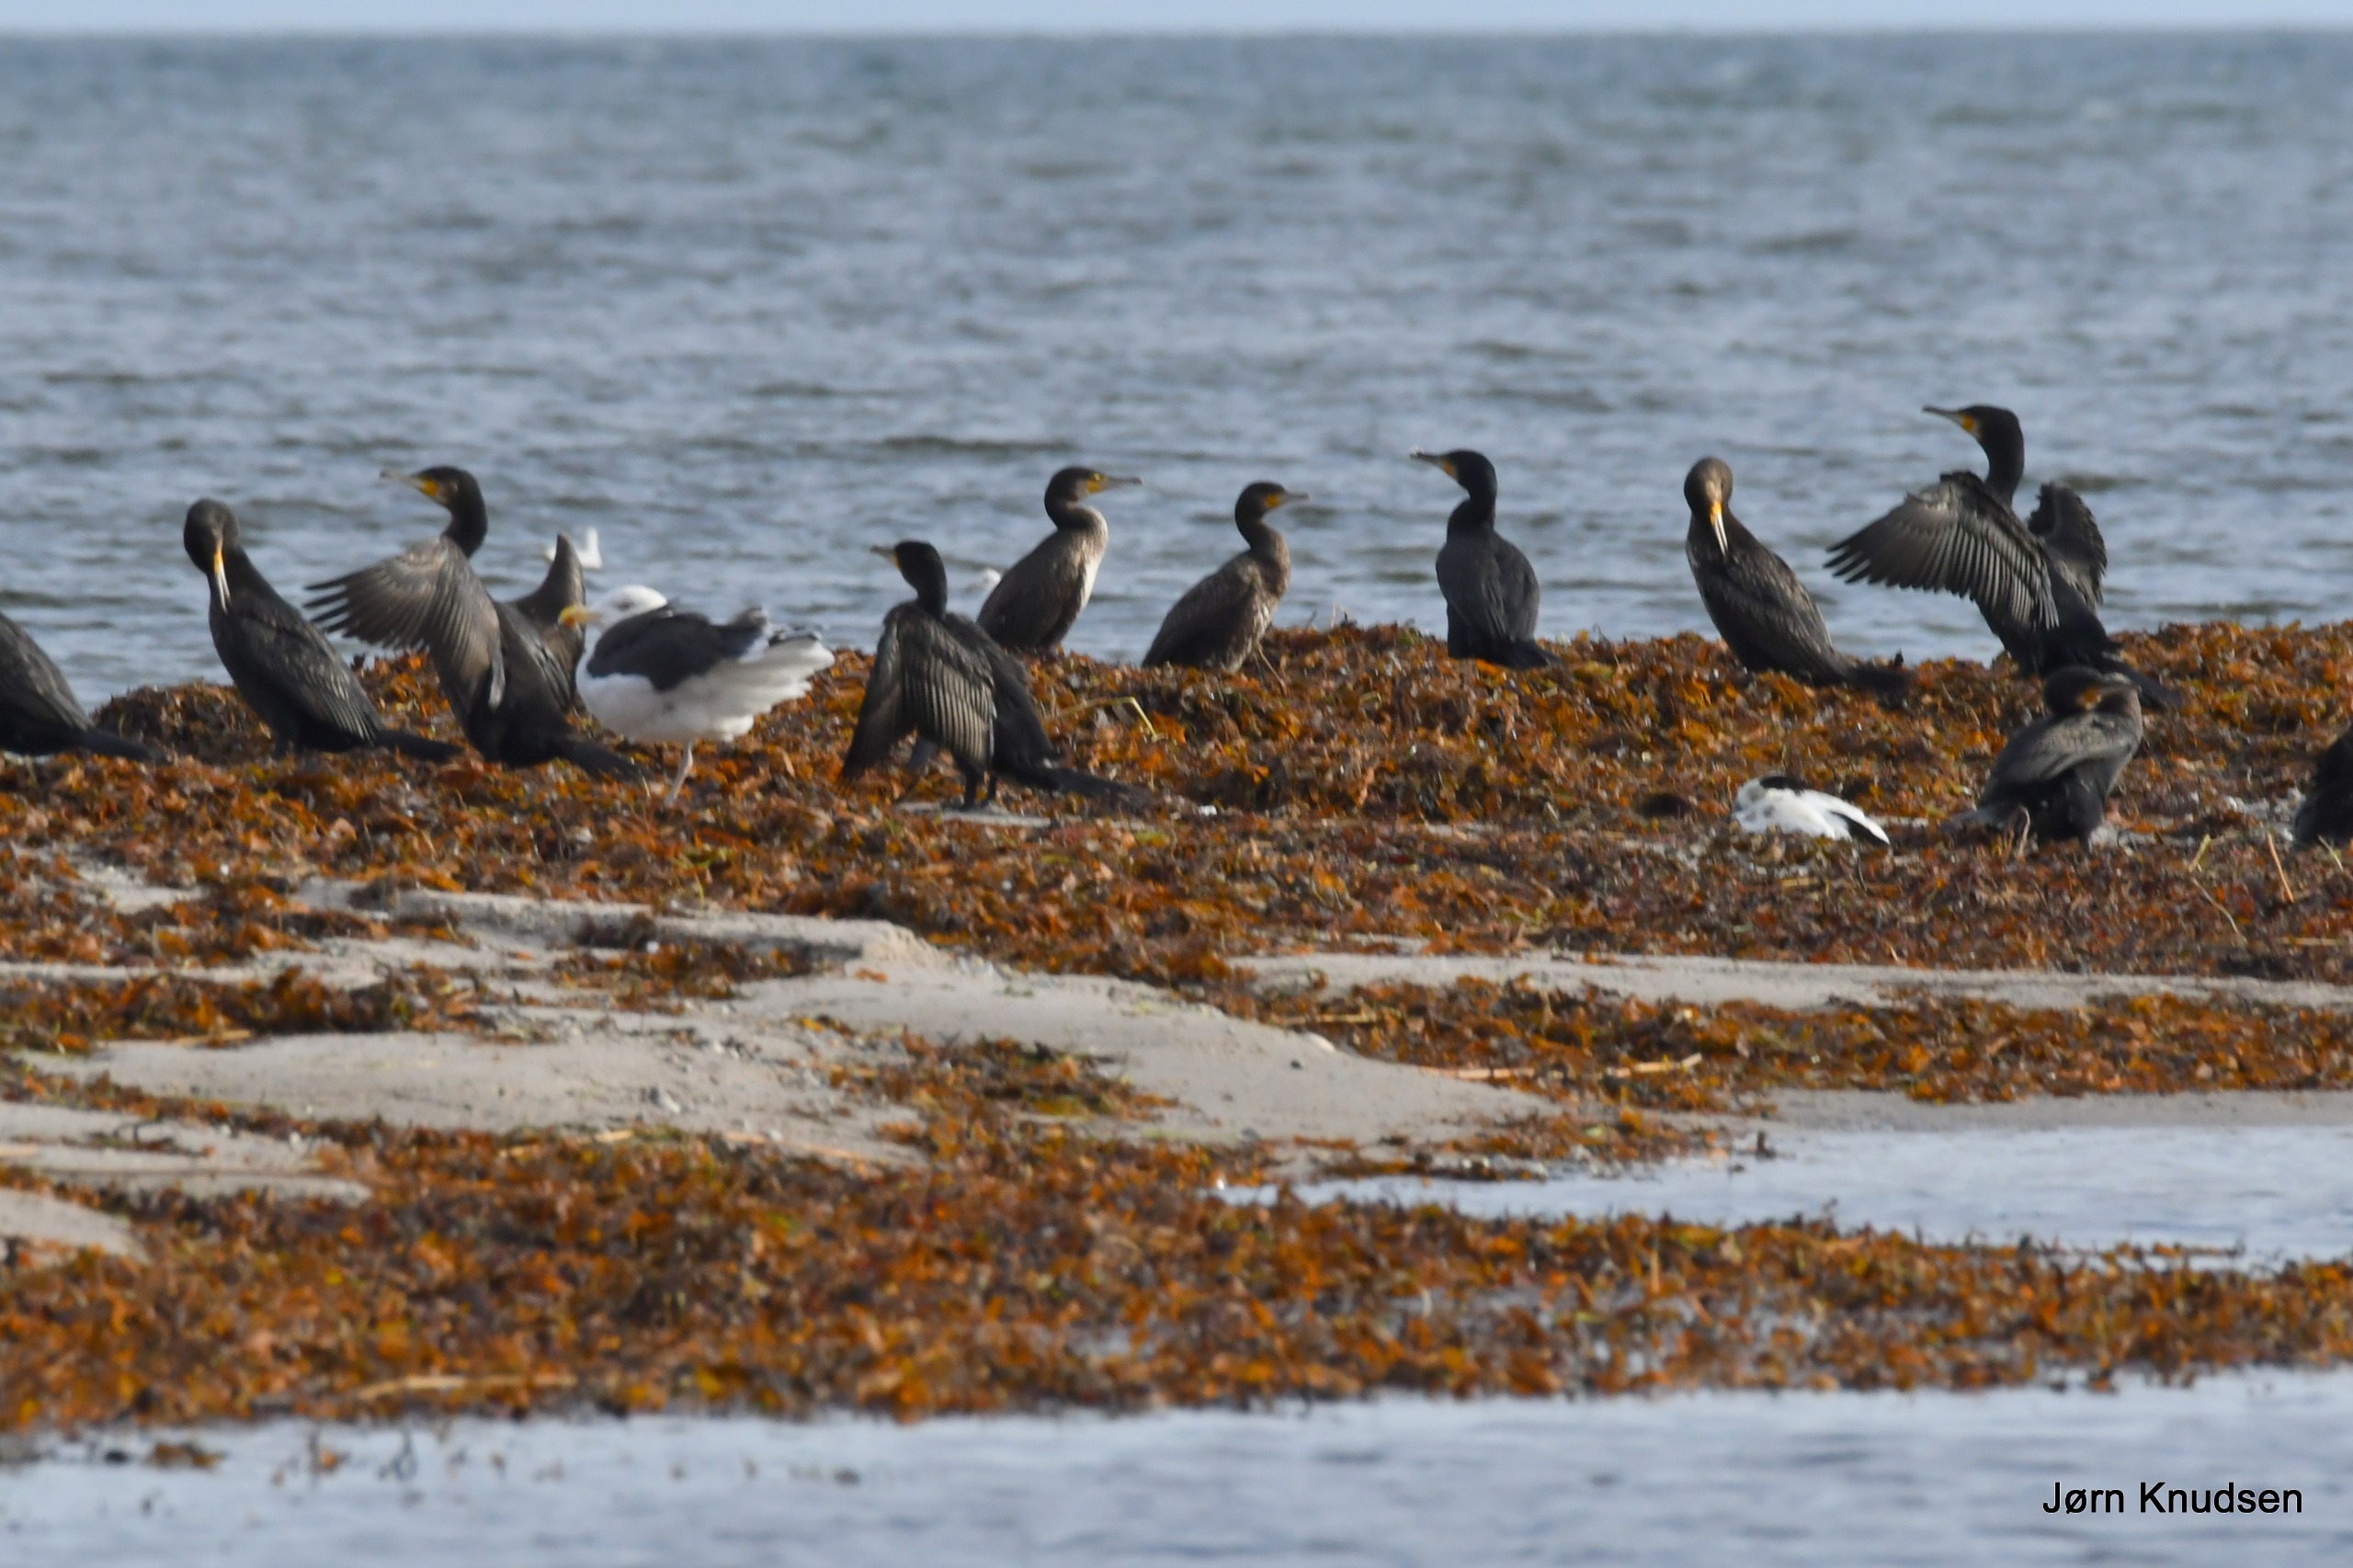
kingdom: Animalia
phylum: Chordata
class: Aves
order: Suliformes
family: Phalacrocoracidae
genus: Phalacrocorax
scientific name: Phalacrocorax carbo
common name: Skarv
